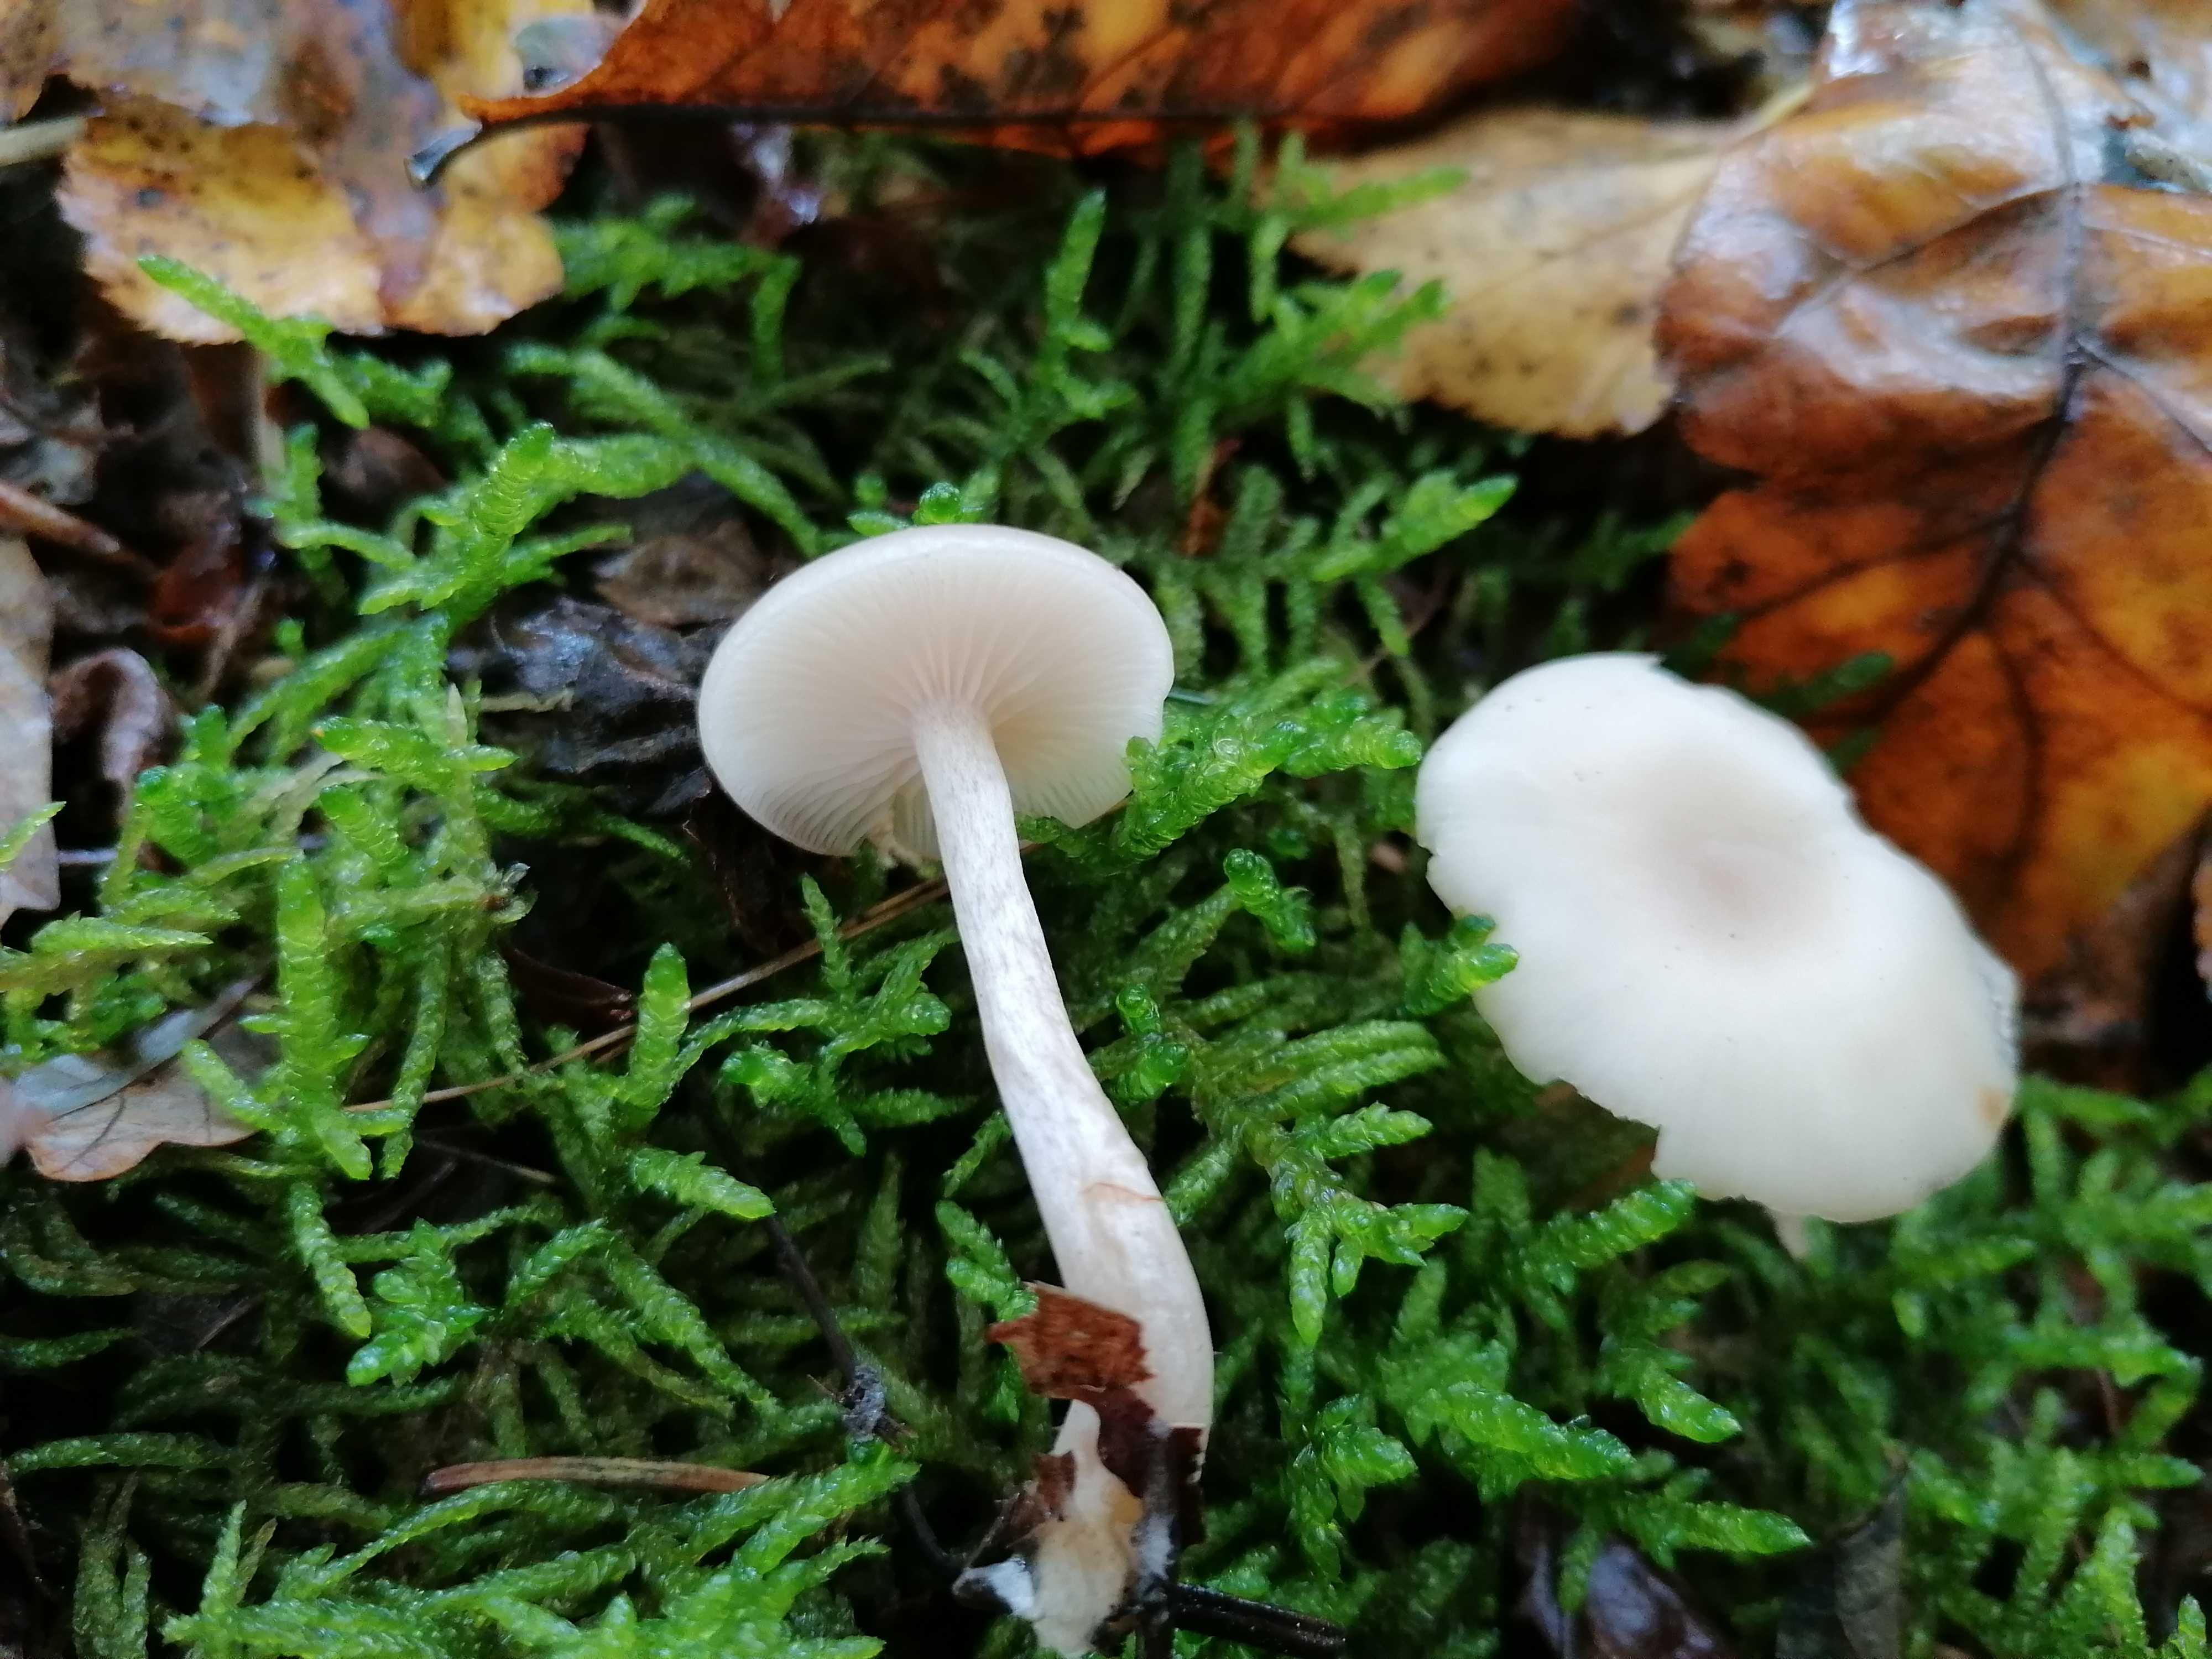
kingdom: Fungi
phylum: Basidiomycota
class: Agaricomycetes
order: Agaricales
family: Tricholomataceae
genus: Clitocybe
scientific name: Clitocybe fragrans
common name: vellugtende tragthat
